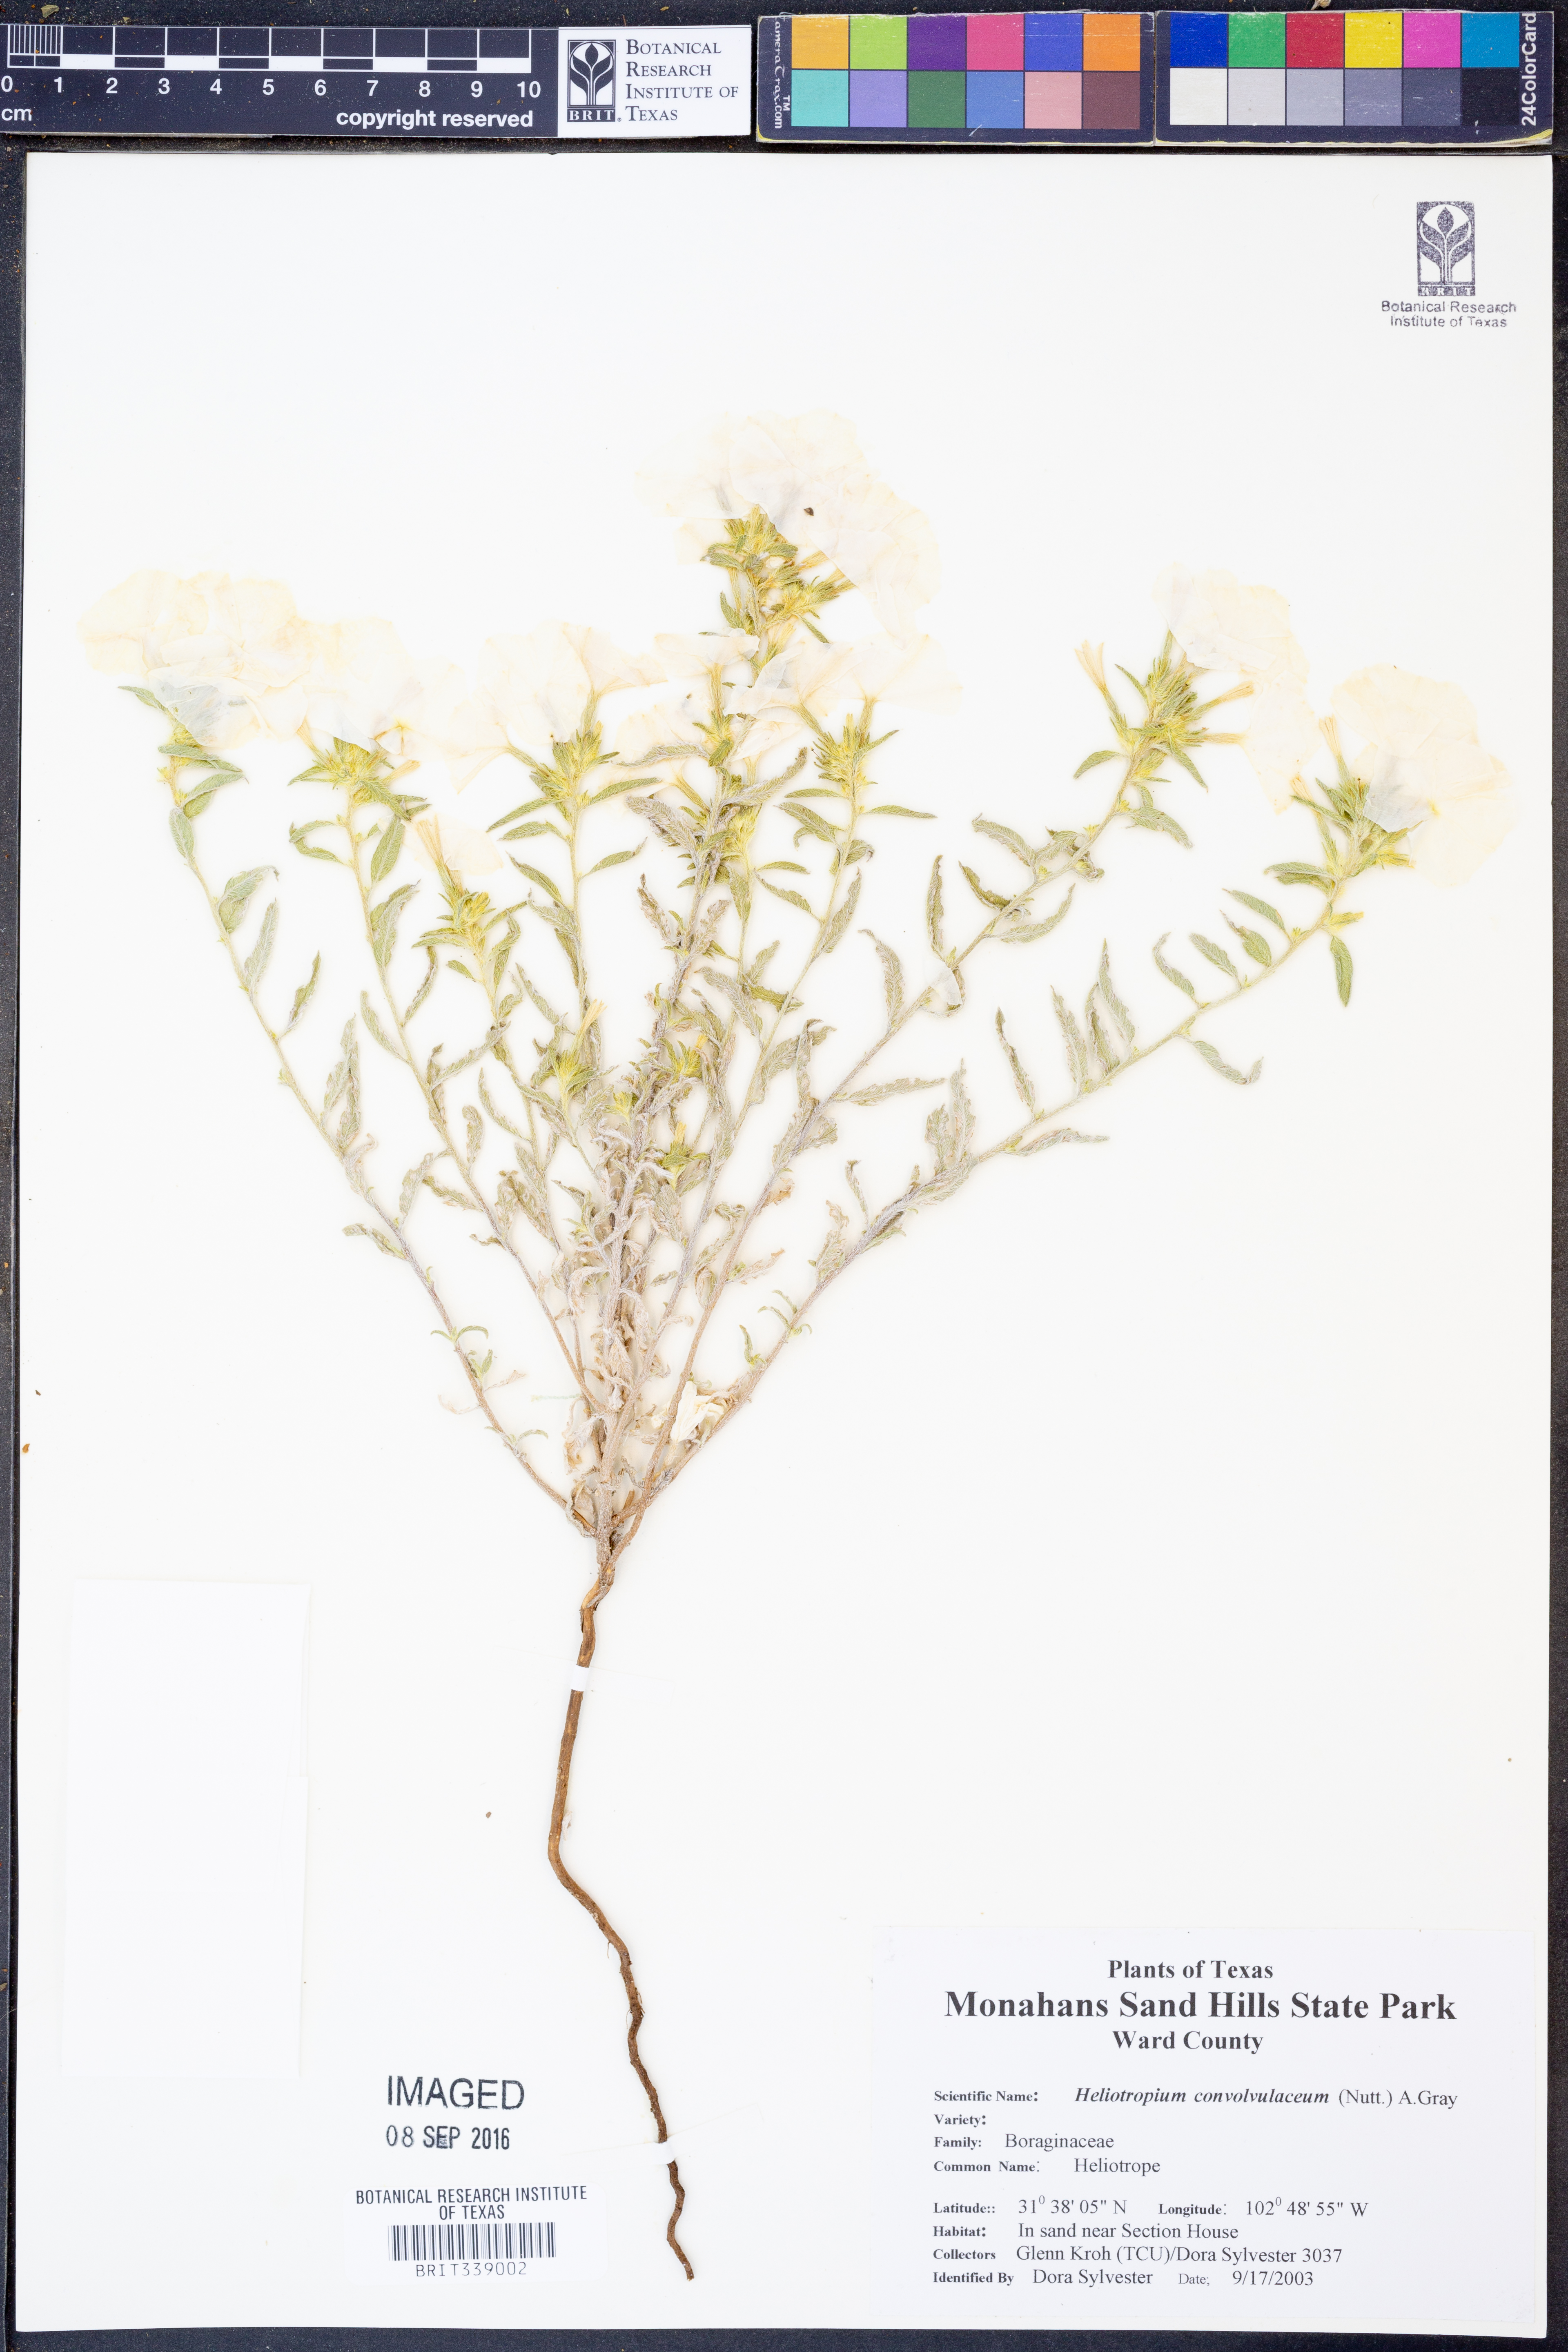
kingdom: Plantae
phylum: Tracheophyta
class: Magnoliopsida
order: Boraginales
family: Heliotropiaceae
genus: Euploca
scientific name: Euploca convolvulacea
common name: Bindweed heliotrope
